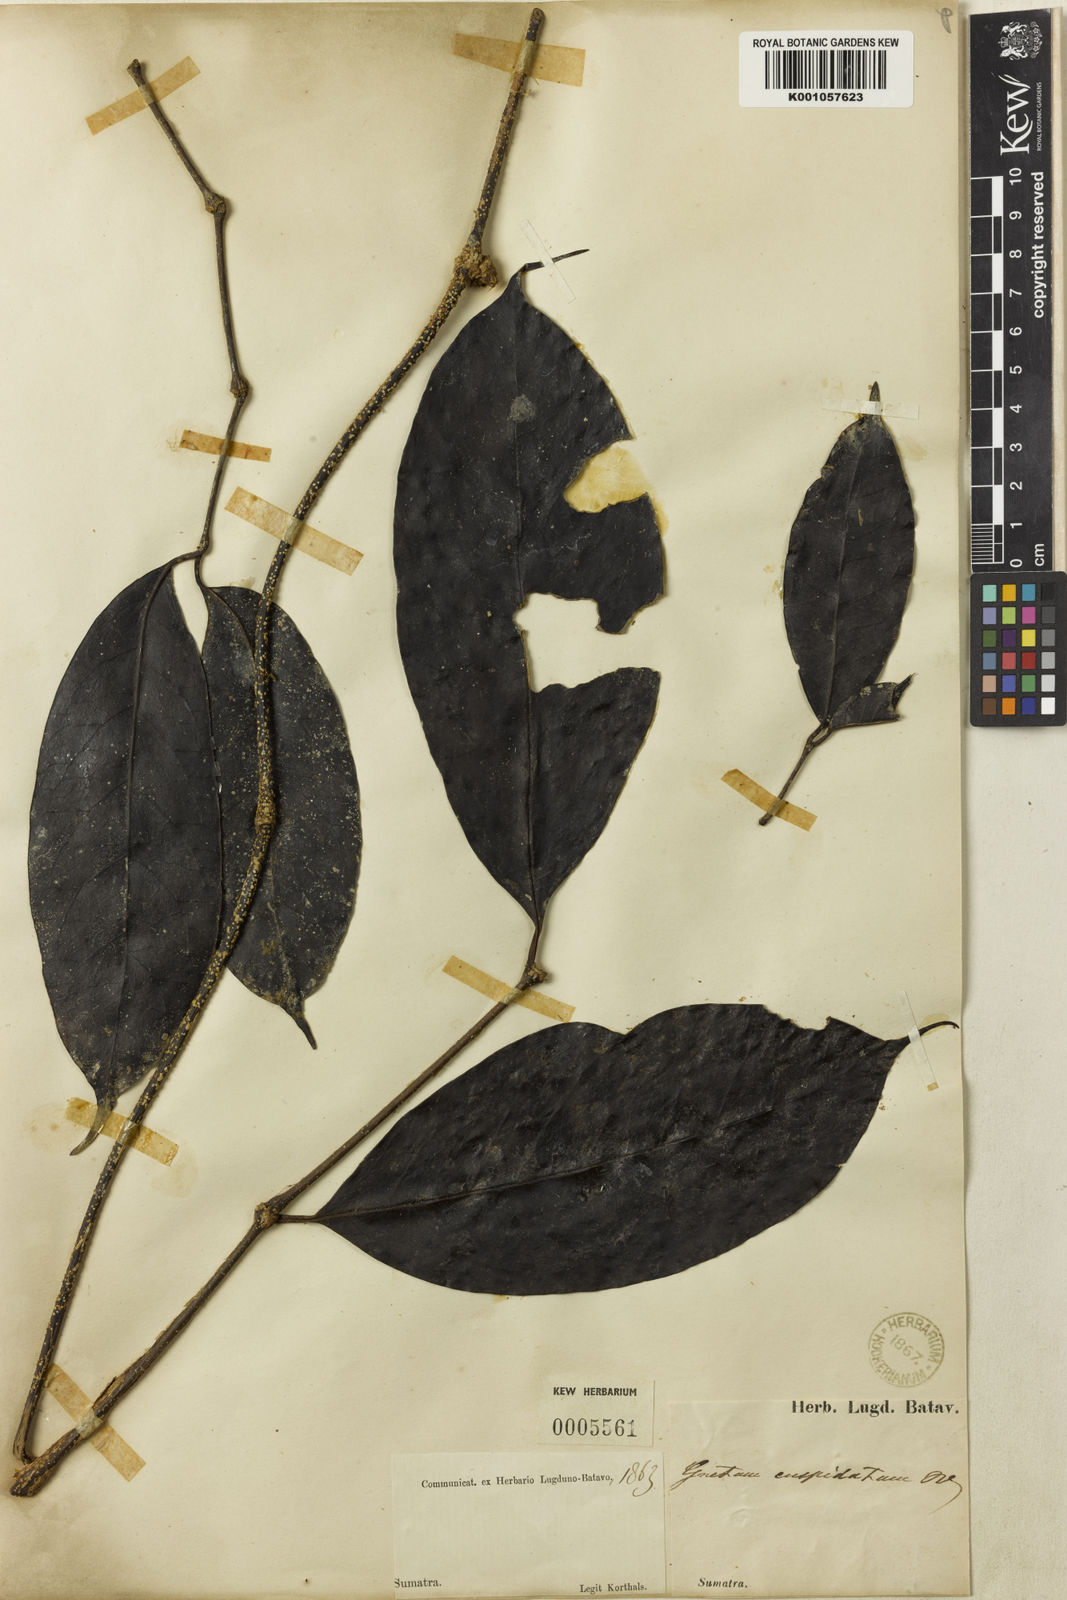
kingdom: Plantae
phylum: Tracheophyta
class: Gnetopsida
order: Gnetales
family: Gnetaceae
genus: Gnetum
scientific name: Gnetum latifolium
